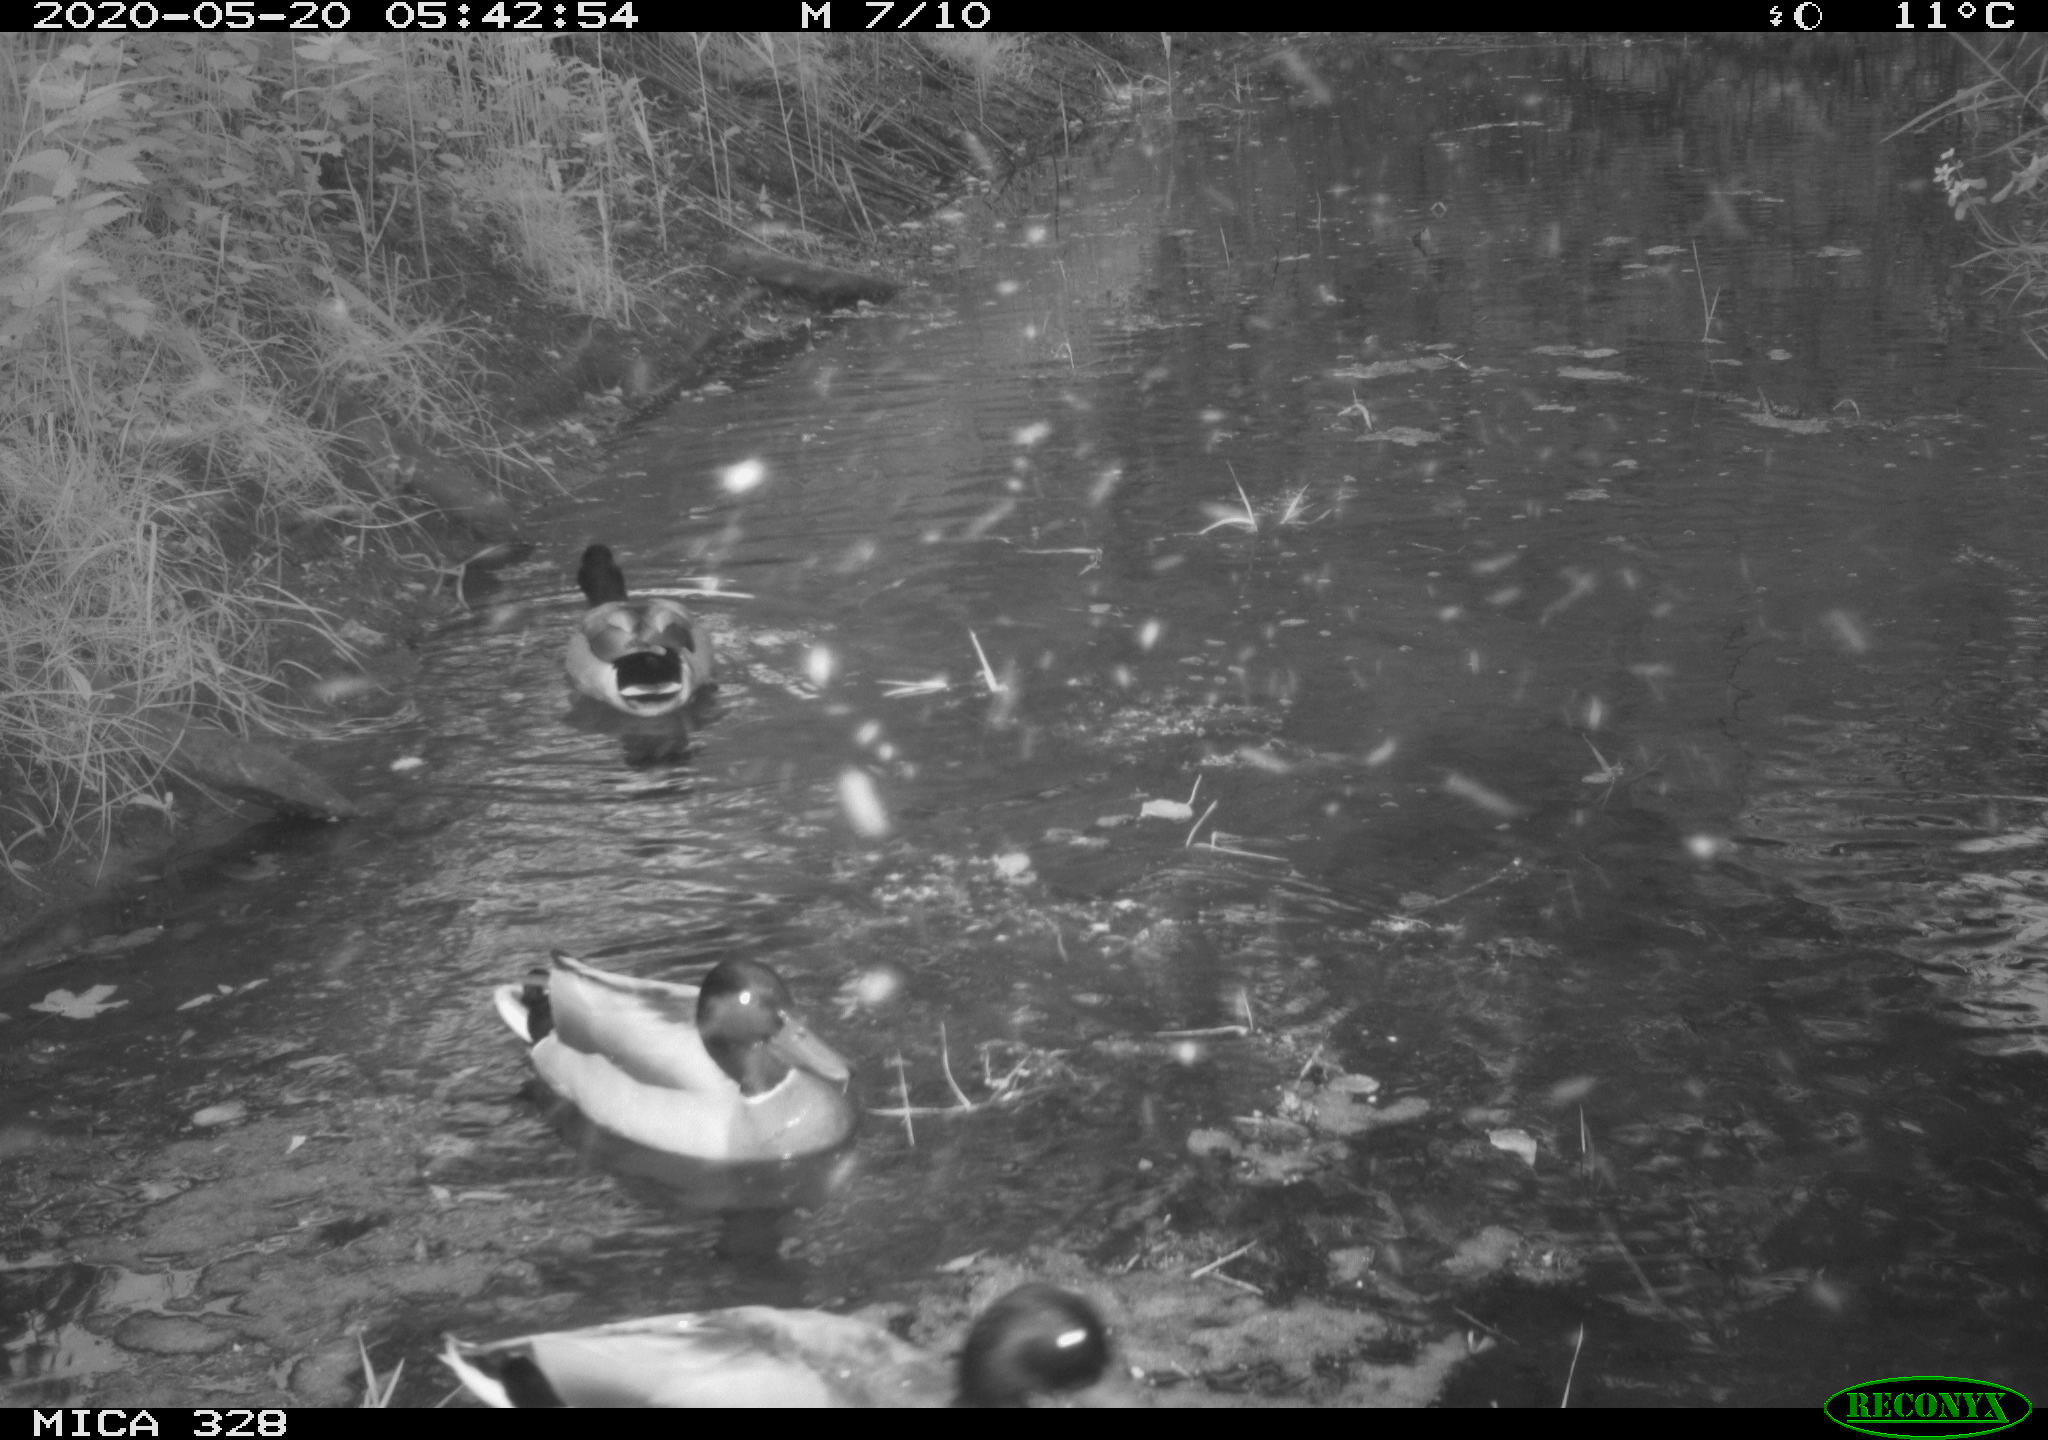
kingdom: Animalia
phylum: Chordata
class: Aves
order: Anseriformes
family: Anatidae
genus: Anas
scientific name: Anas platyrhynchos
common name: Mallard
